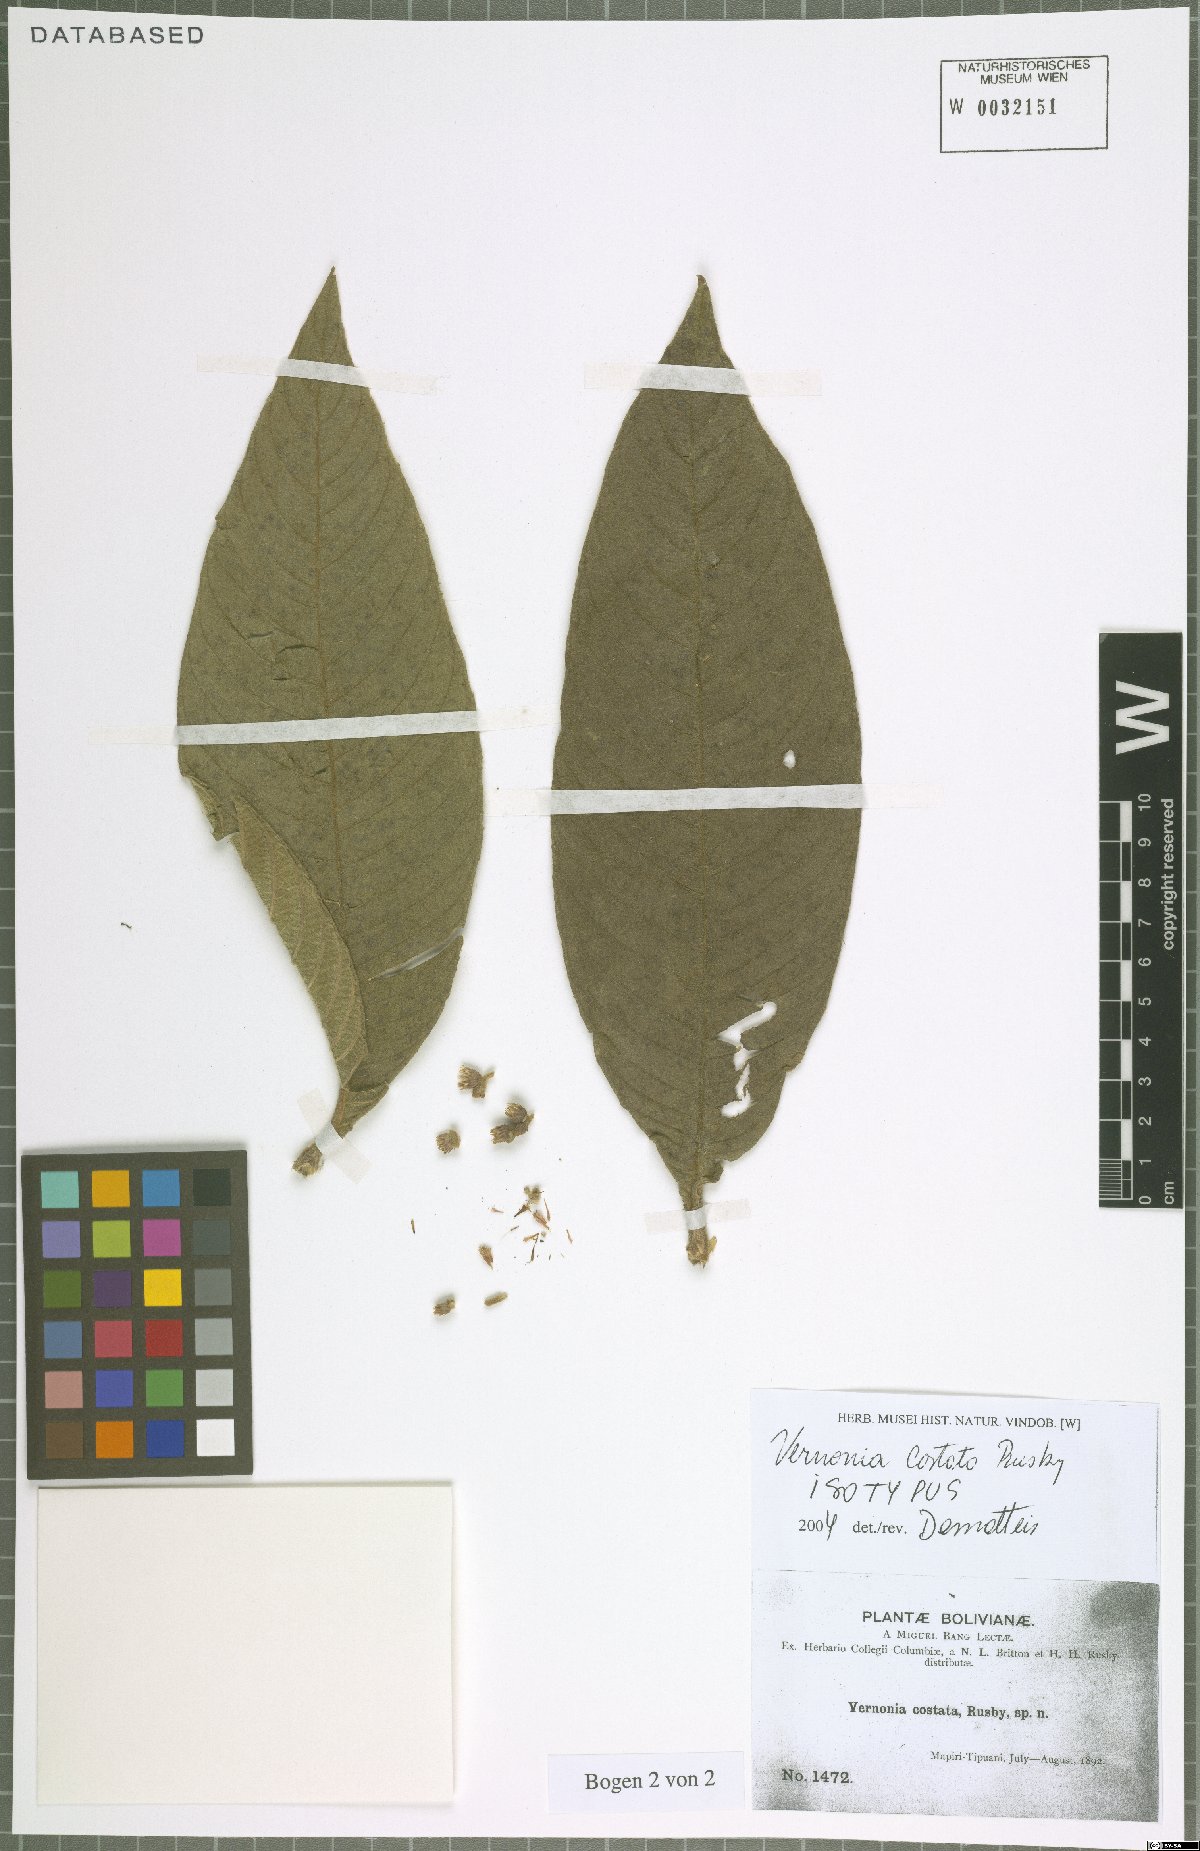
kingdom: Plantae
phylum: Tracheophyta
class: Magnoliopsida
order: Asterales
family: Asteraceae
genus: Lepidaploa
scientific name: Lepidaploa costata
